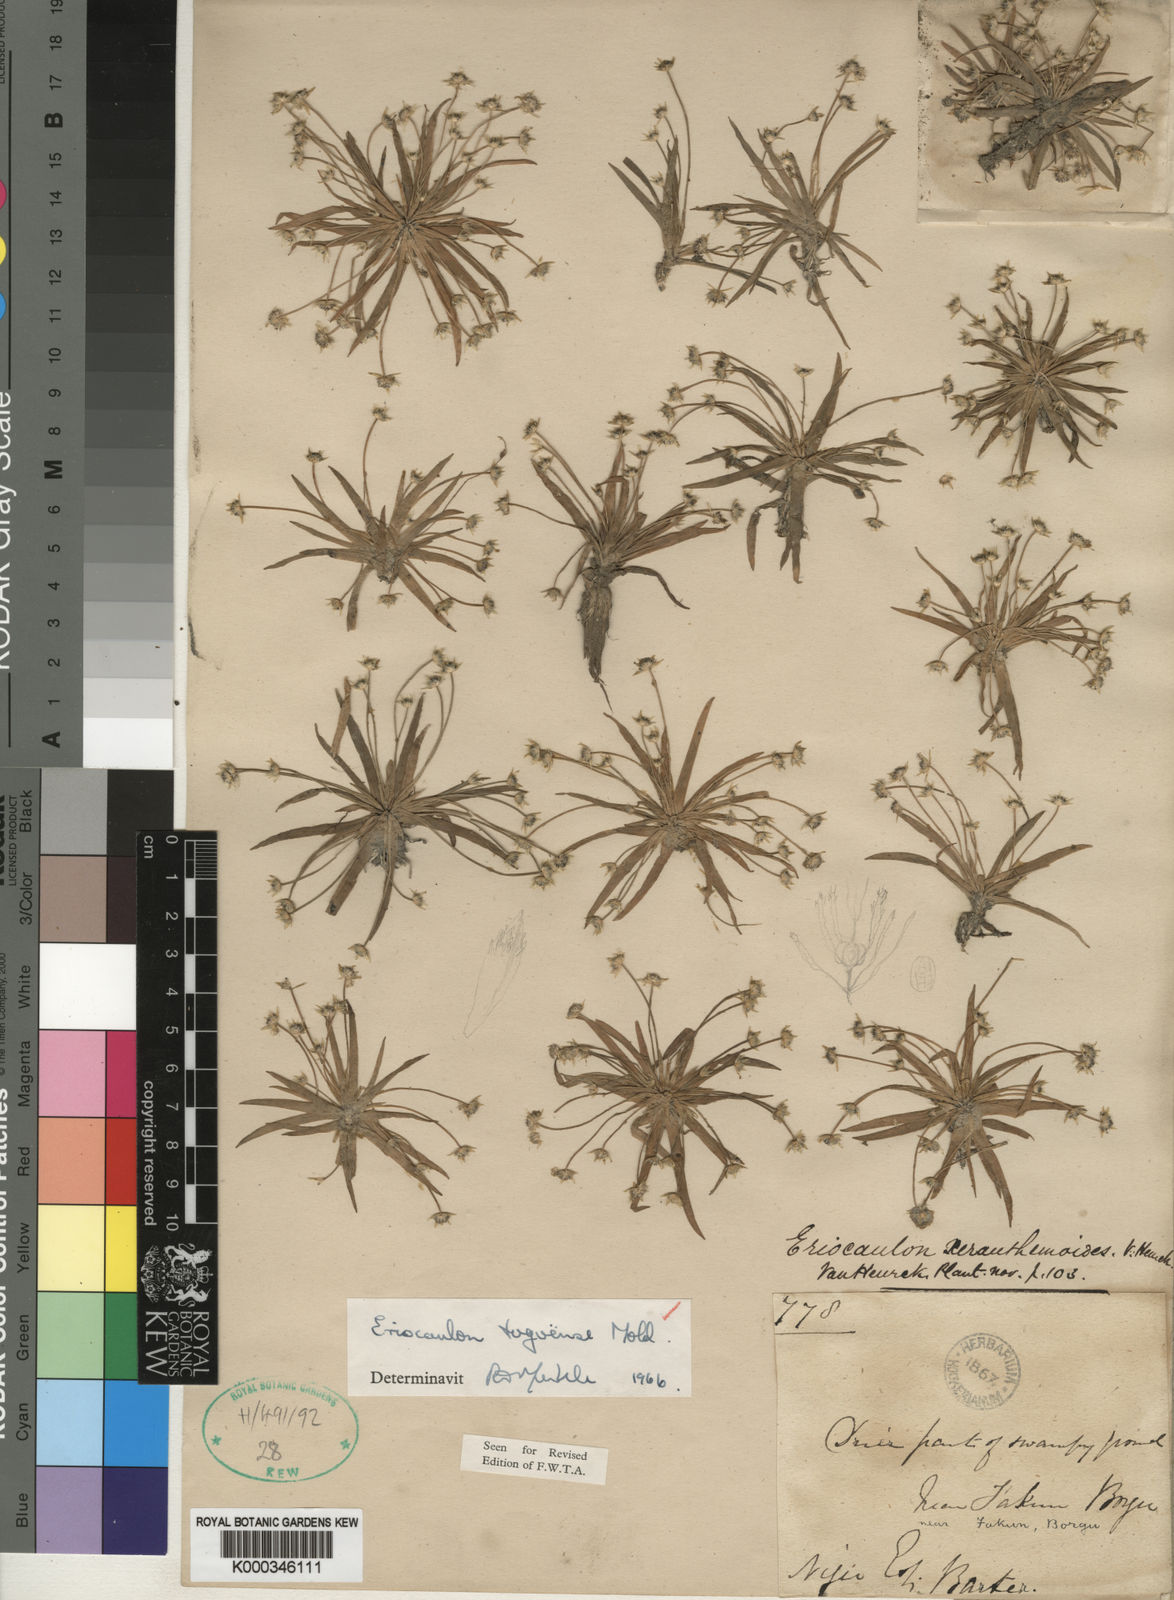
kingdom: Plantae
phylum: Tracheophyta
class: Liliopsida
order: Poales
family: Eriocaulaceae
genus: Eriocaulon
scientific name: Eriocaulon togoense
